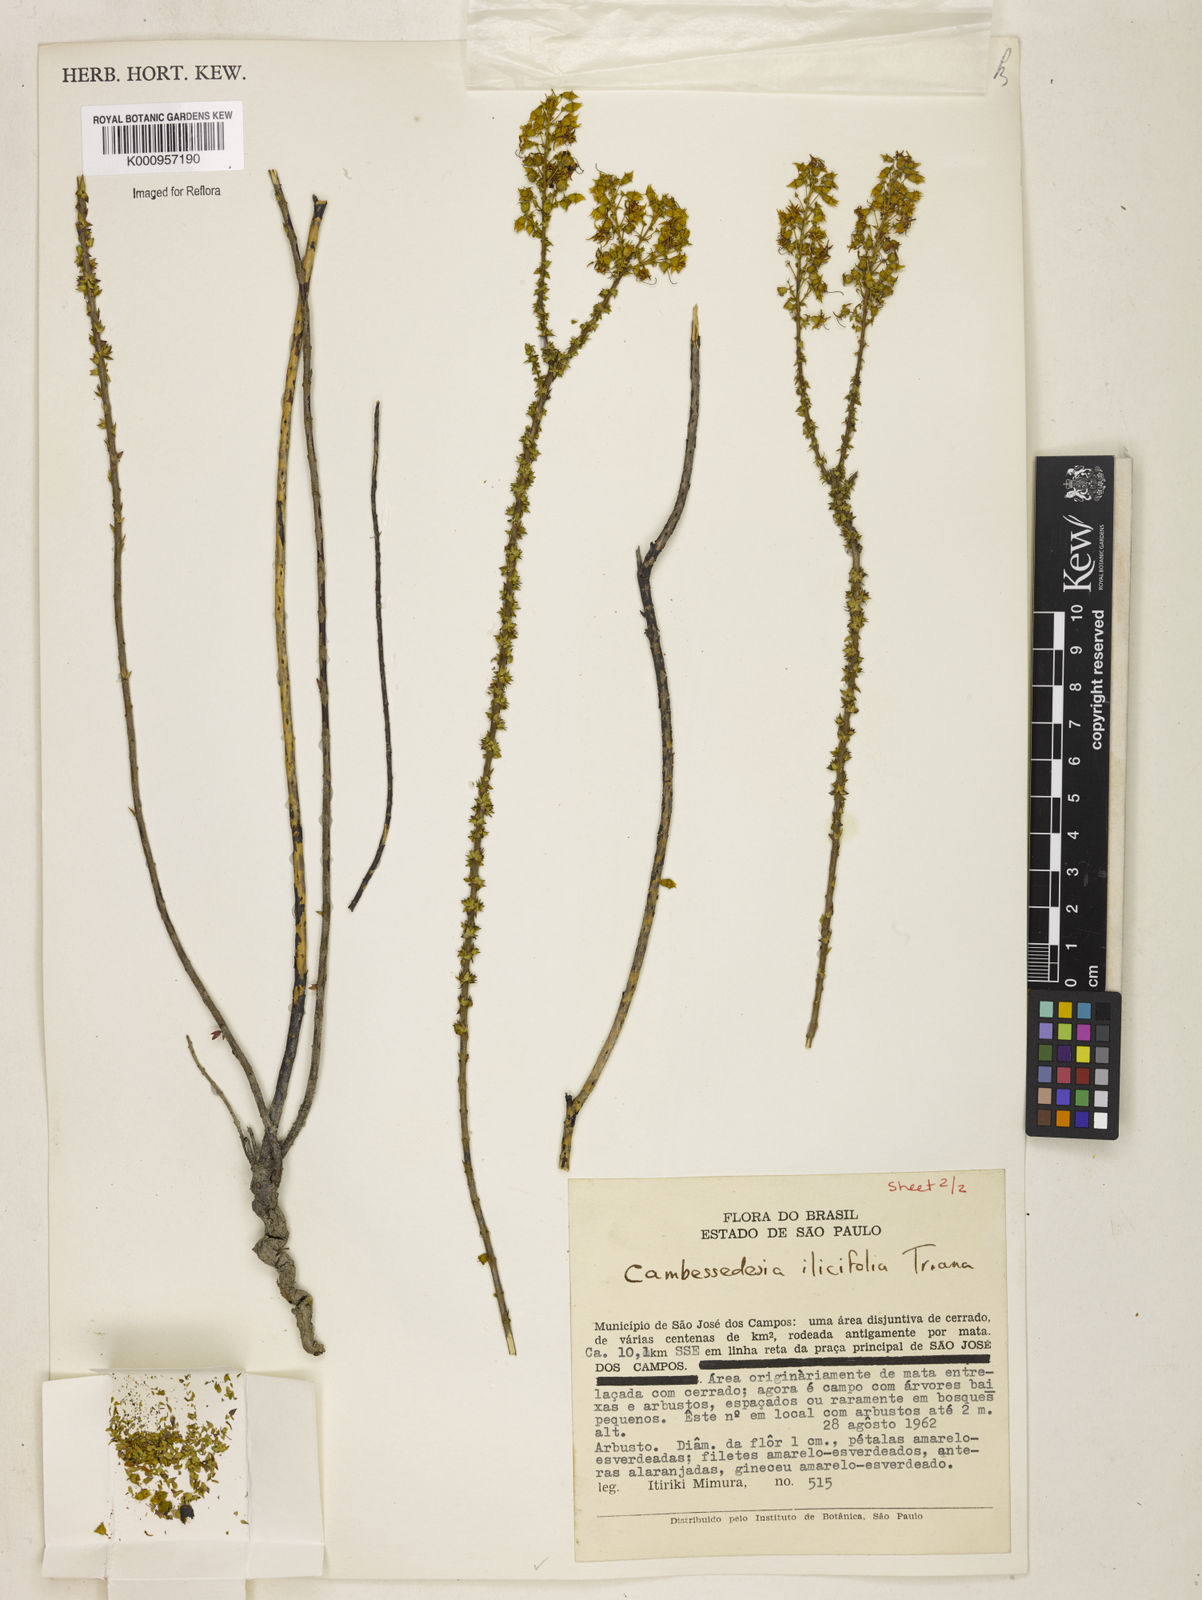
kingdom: Plantae
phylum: Tracheophyta
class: Magnoliopsida
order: Myrtales
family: Melastomataceae
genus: Cambessedesia
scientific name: Cambessedesia espora
